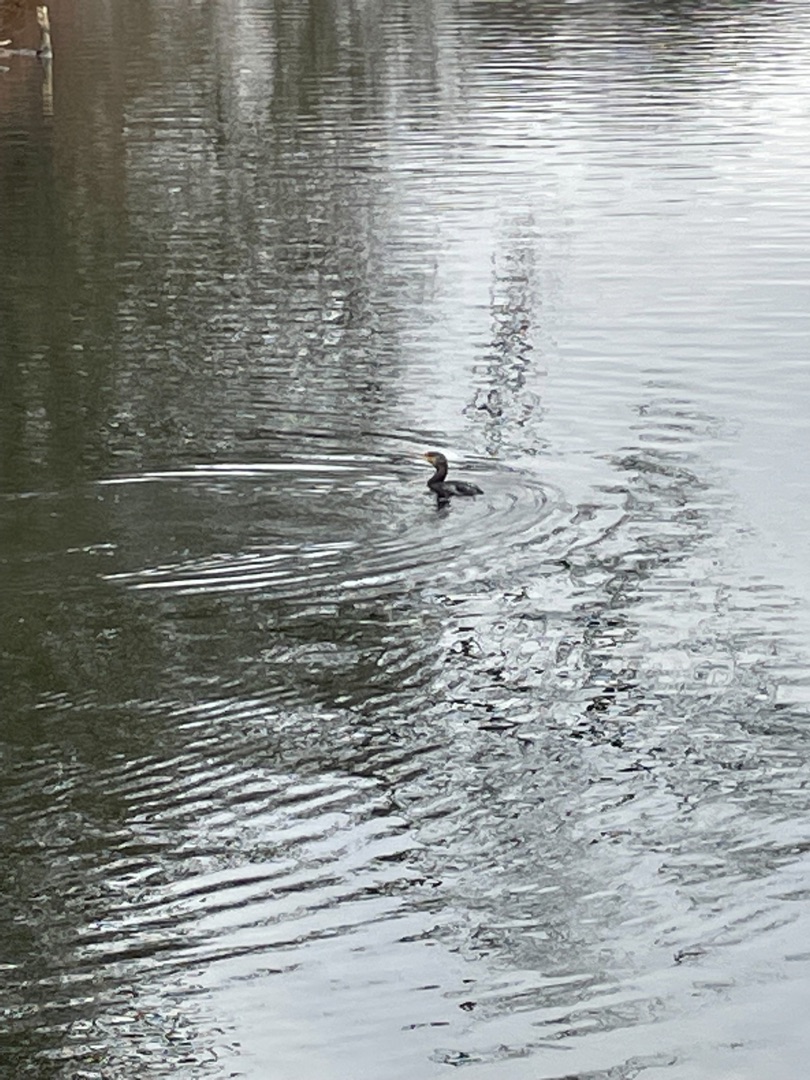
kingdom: Animalia
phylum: Chordata
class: Aves
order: Suliformes
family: Phalacrocoracidae
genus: Phalacrocorax
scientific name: Phalacrocorax carbo
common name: Skarv
